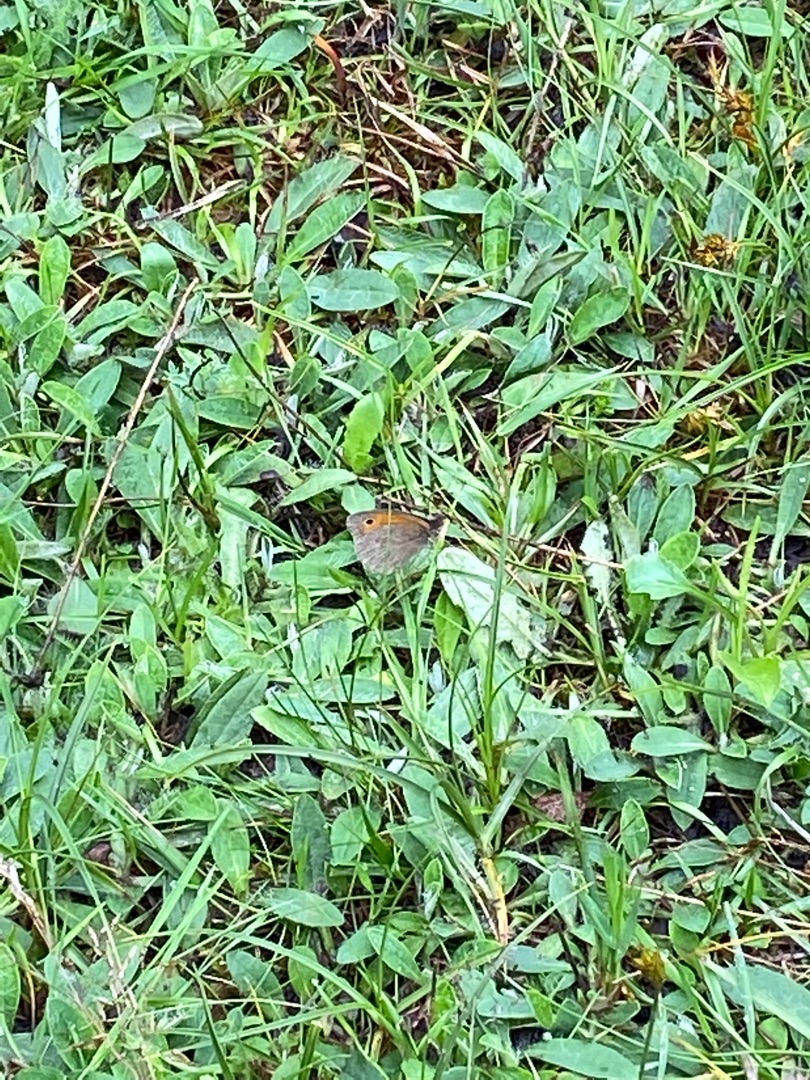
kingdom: Animalia
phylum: Arthropoda
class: Insecta
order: Lepidoptera
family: Nymphalidae
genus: Maniola
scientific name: Maniola jurtina
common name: Græsrandøje
